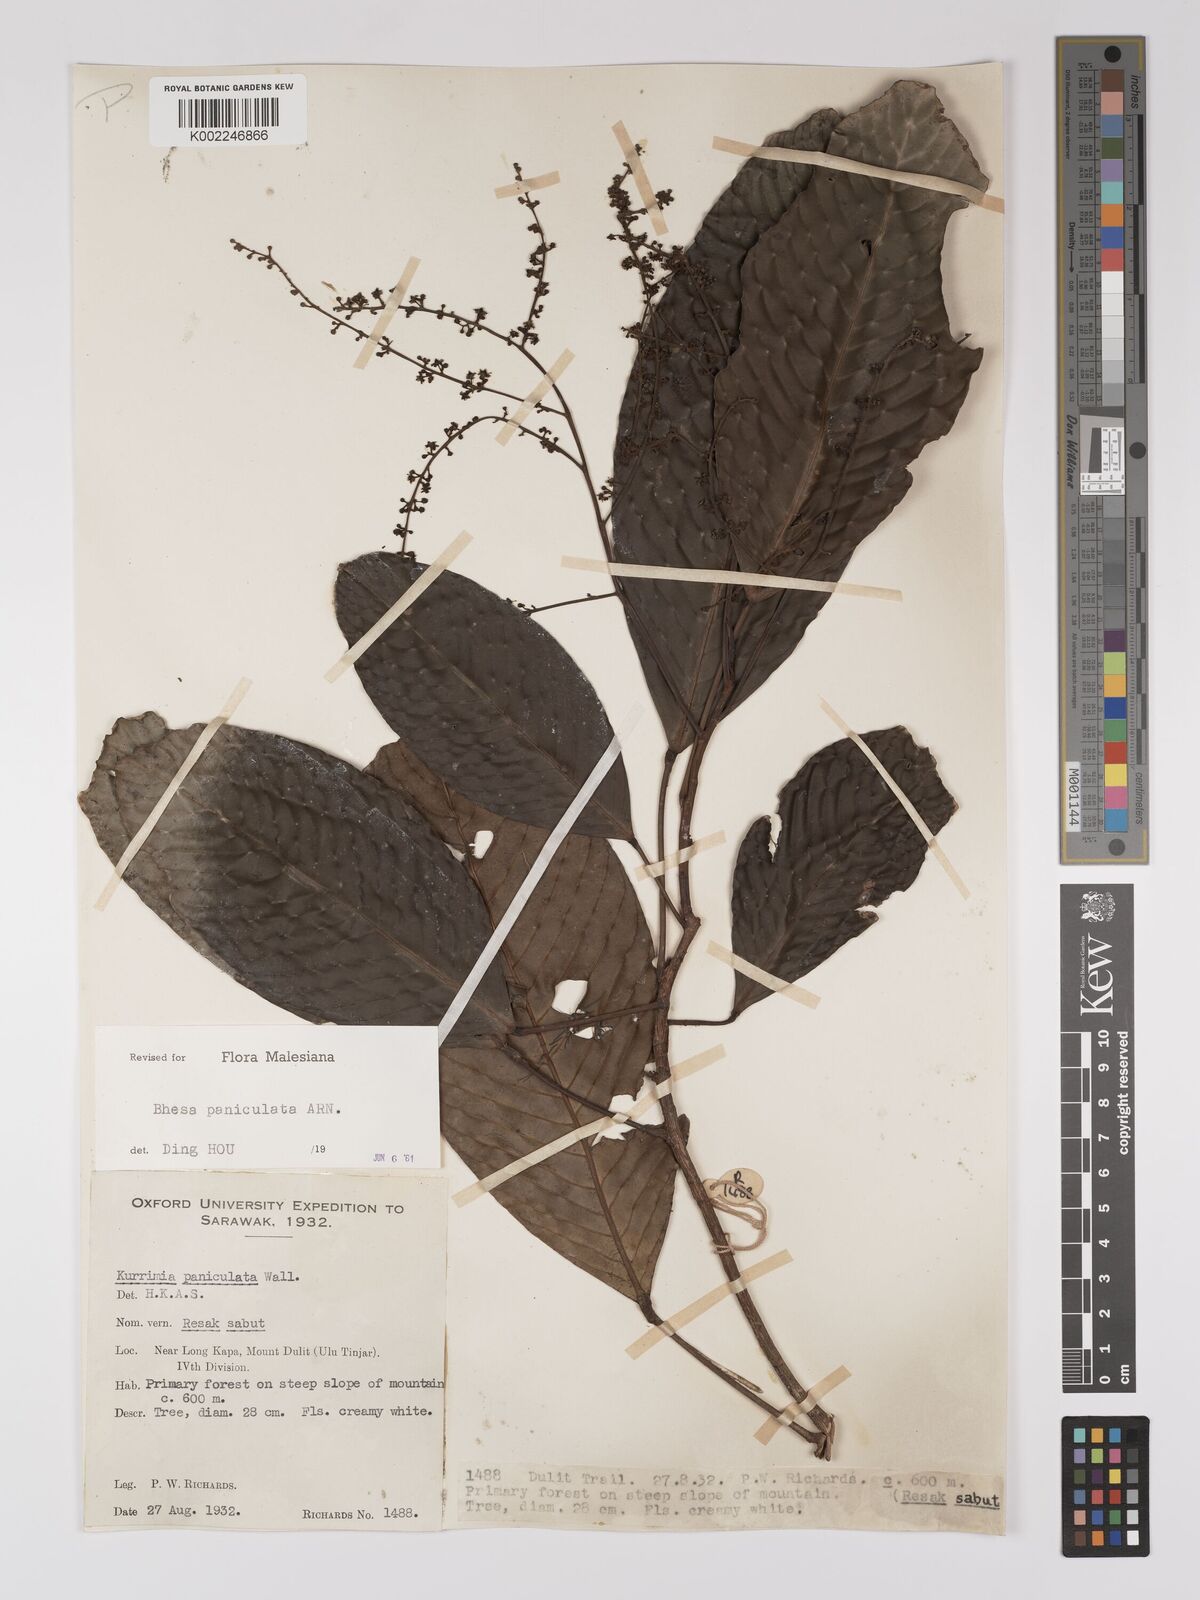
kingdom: Plantae
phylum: Tracheophyta
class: Magnoliopsida
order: Malpighiales
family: Centroplacaceae
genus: Bhesa
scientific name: Bhesa paniculata
